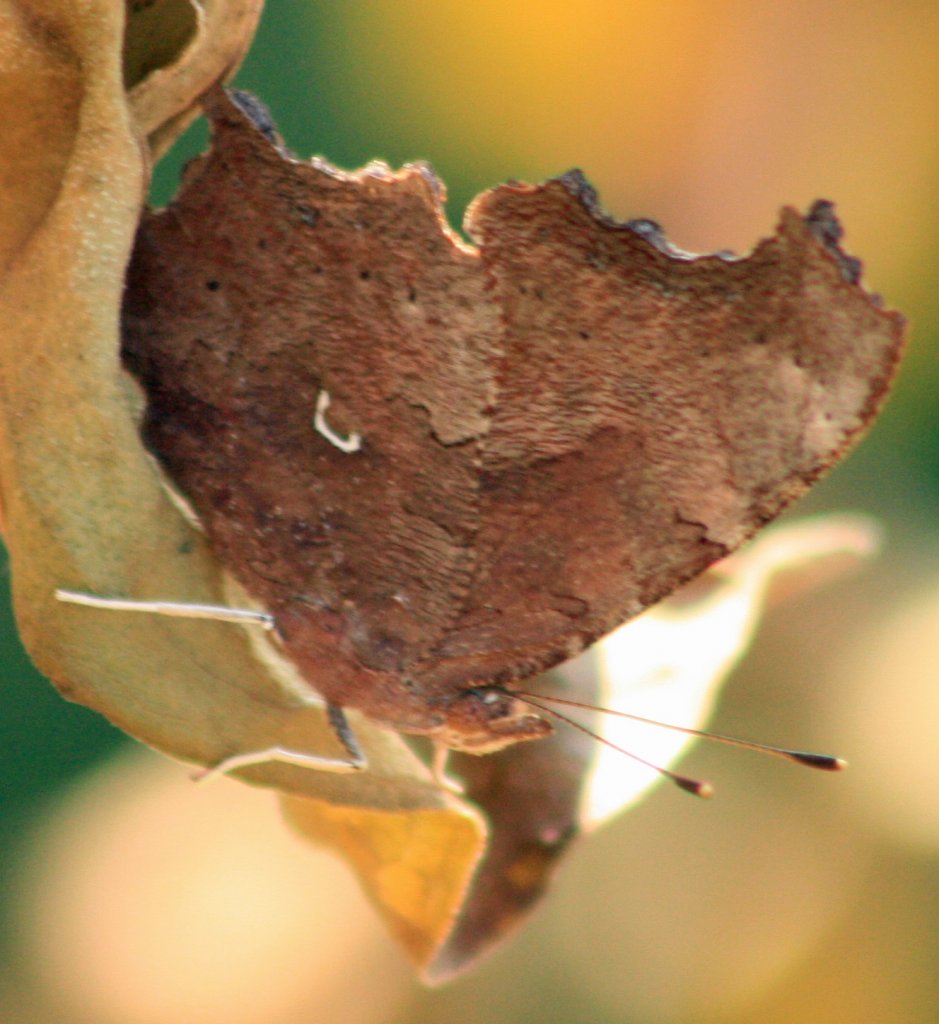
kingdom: Animalia
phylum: Arthropoda
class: Insecta
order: Lepidoptera
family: Nymphalidae
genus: Polygonia
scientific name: Polygonia comma
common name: Eastern Comma
